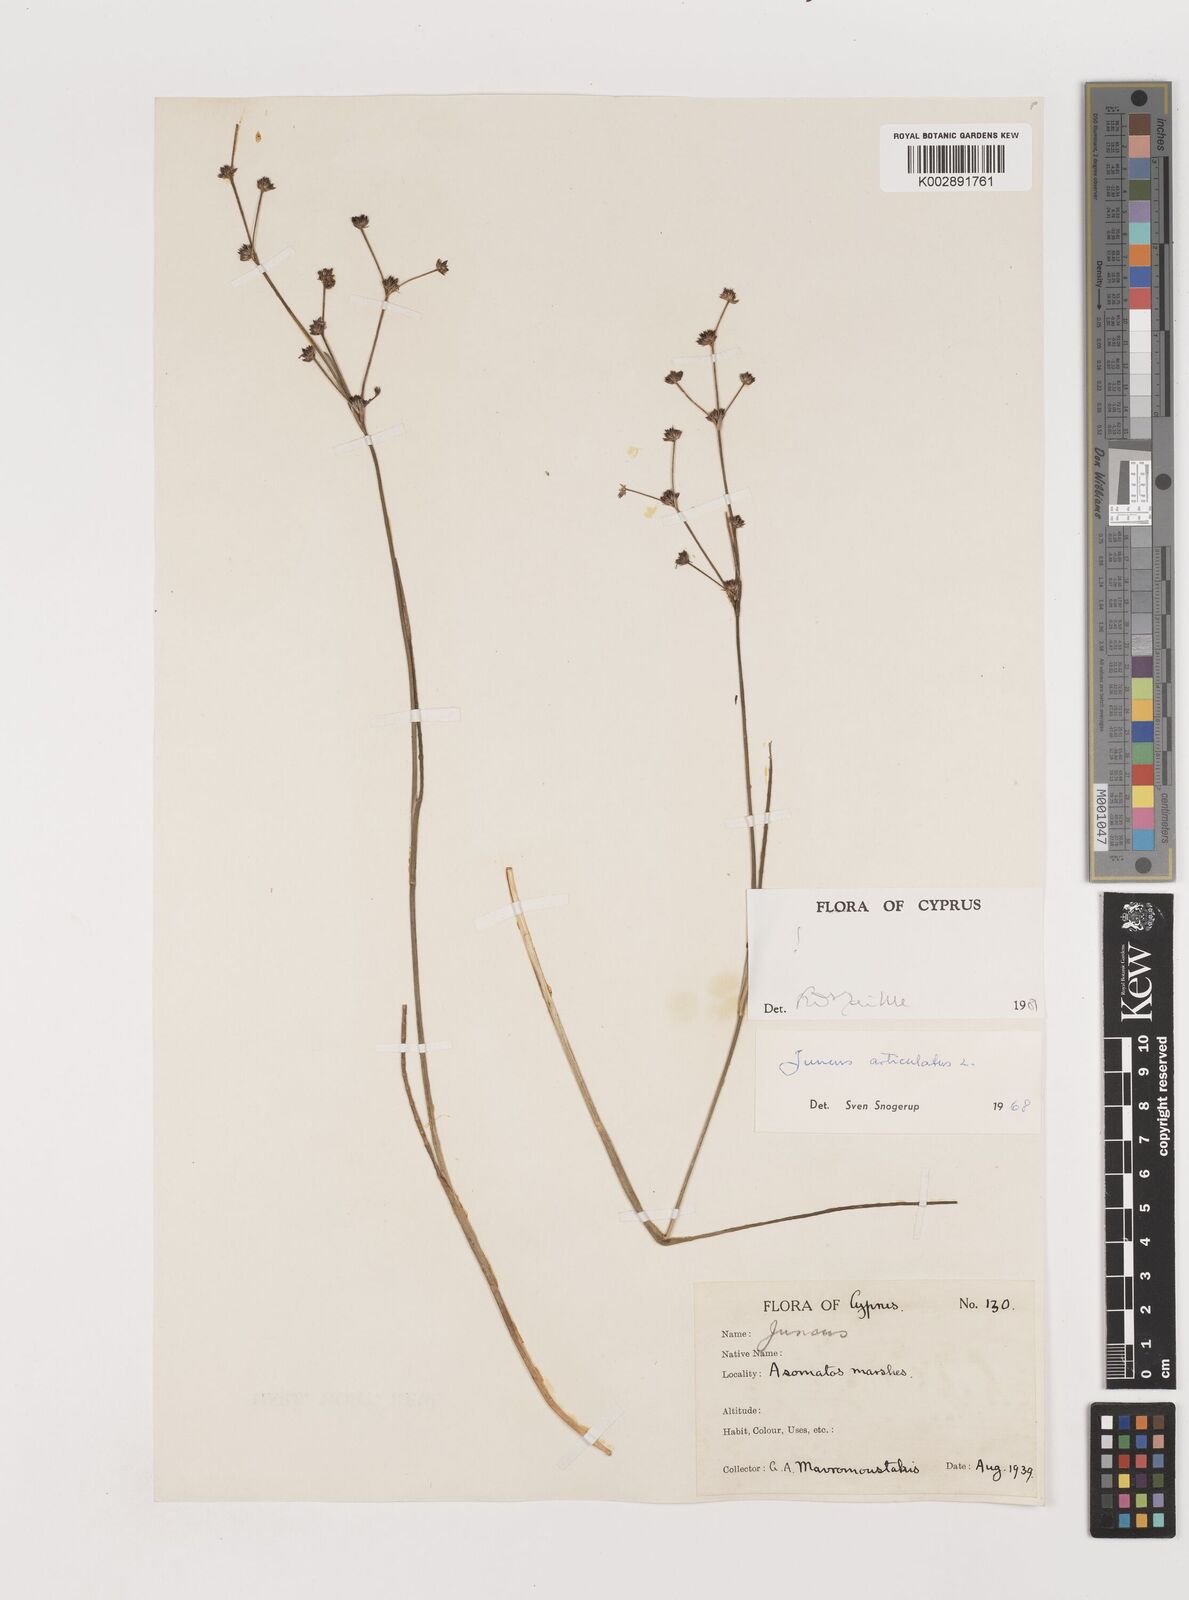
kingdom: Plantae
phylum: Tracheophyta
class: Liliopsida
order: Poales
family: Juncaceae
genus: Juncus
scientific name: Juncus articulatus
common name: Jointed rush
